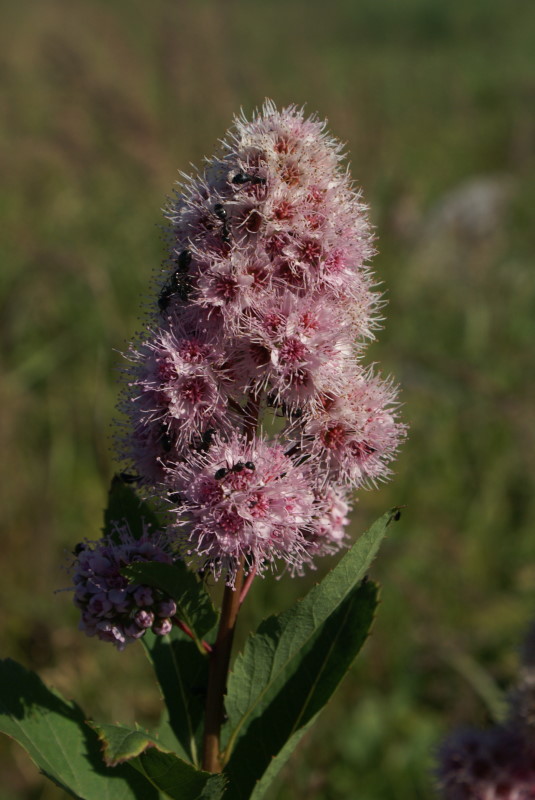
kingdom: Plantae
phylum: Tracheophyta
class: Magnoliopsida
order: Rosales
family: Rosaceae
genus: Spiraea
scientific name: Spiraea salicifolia
